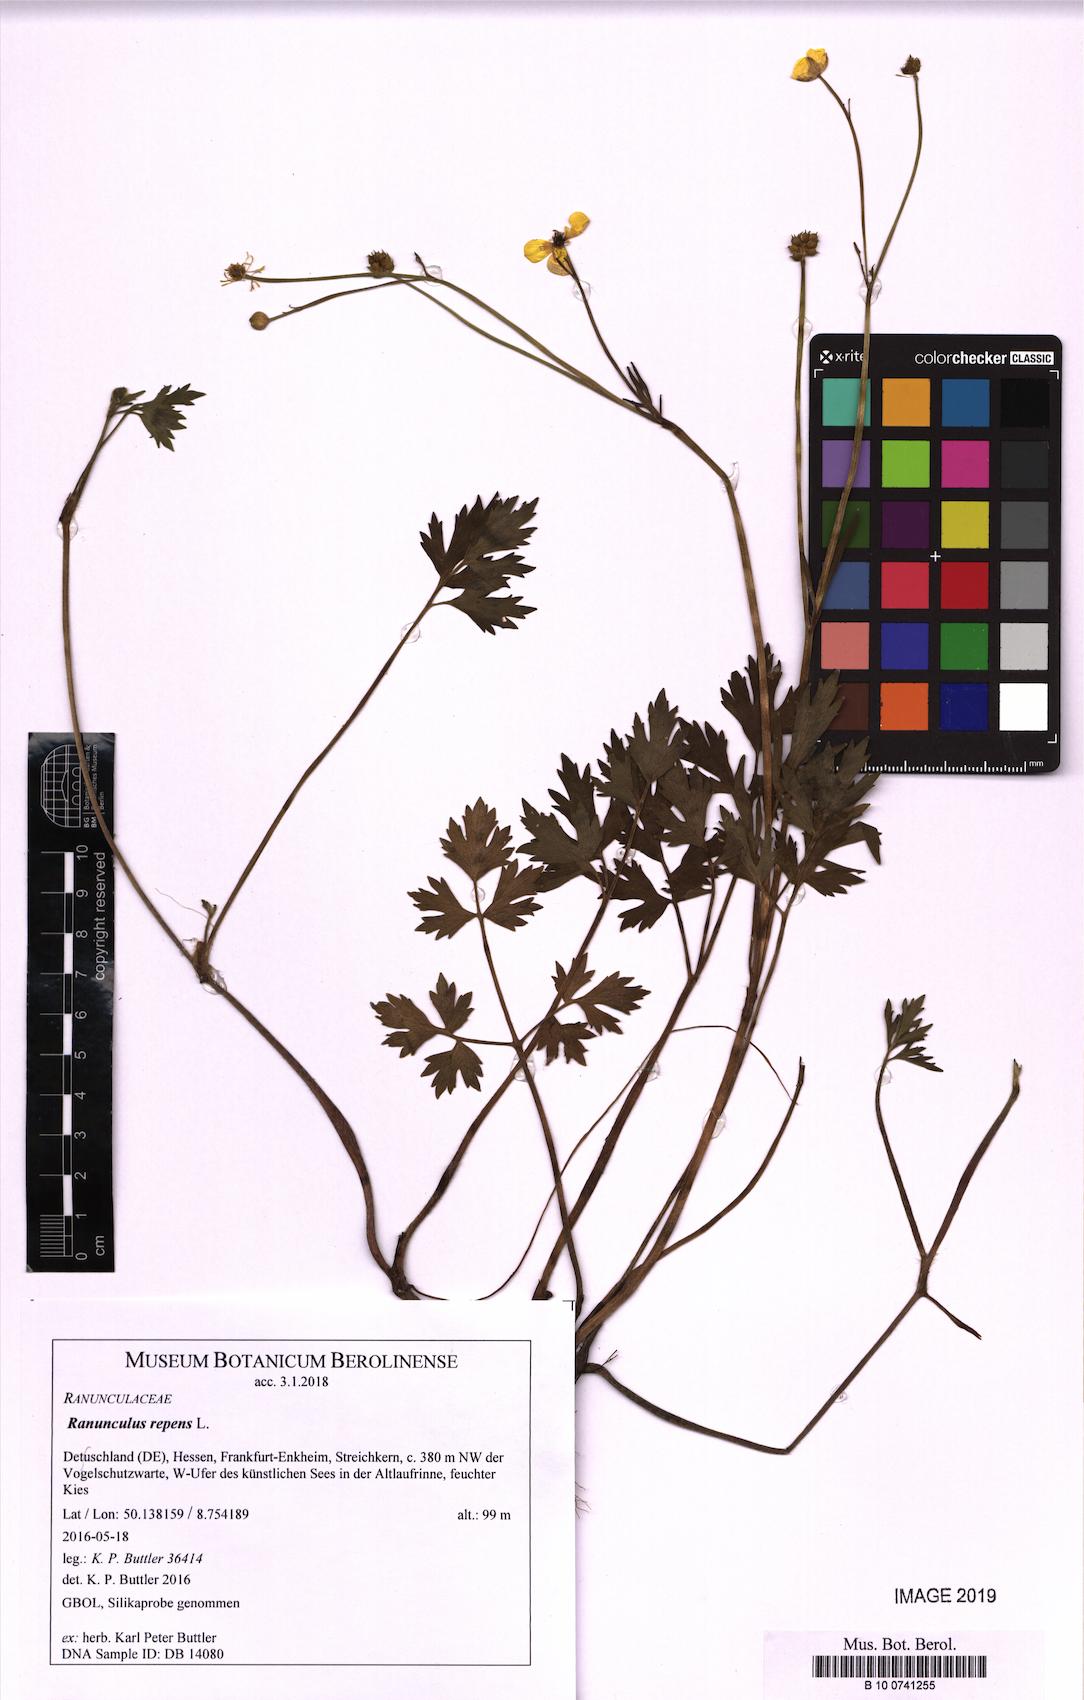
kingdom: Plantae
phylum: Tracheophyta
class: Magnoliopsida
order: Ranunculales
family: Ranunculaceae
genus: Ranunculus
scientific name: Ranunculus repens
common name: Creeping buttercup
